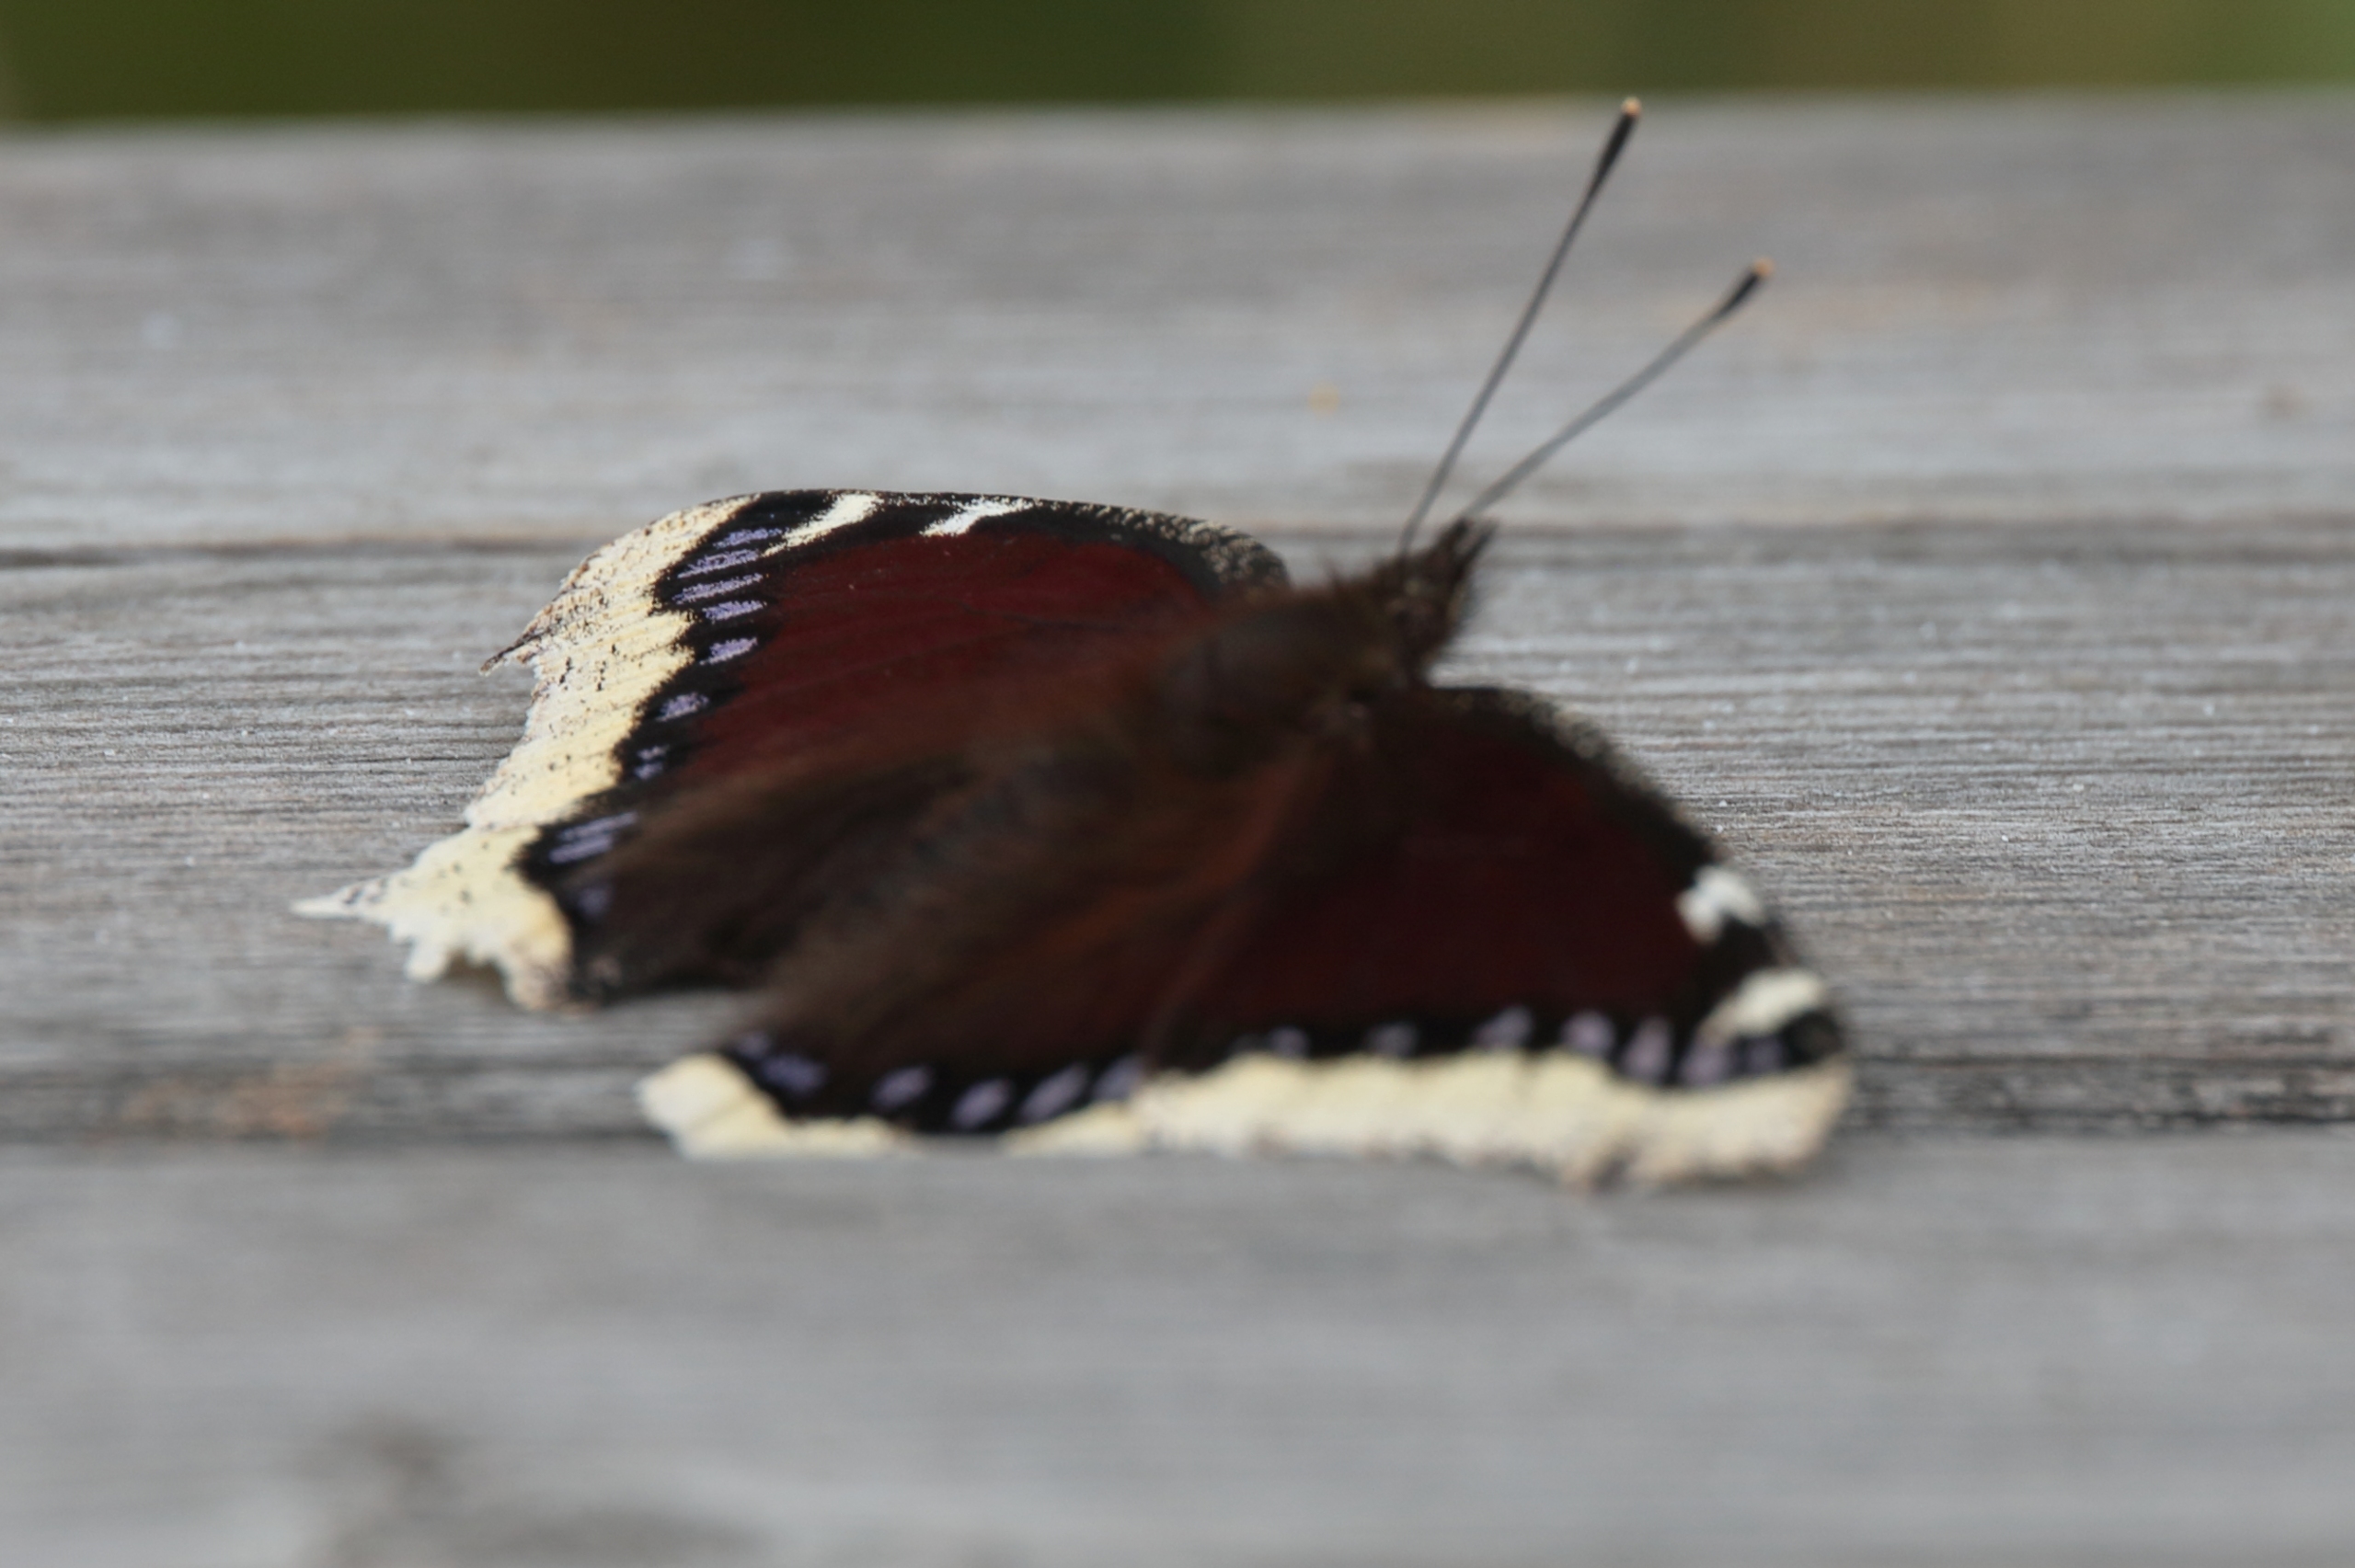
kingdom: Animalia
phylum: Arthropoda
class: Insecta
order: Lepidoptera
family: Nymphalidae
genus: Nymphalis
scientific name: Nymphalis antiopa
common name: Sørgekåbe
